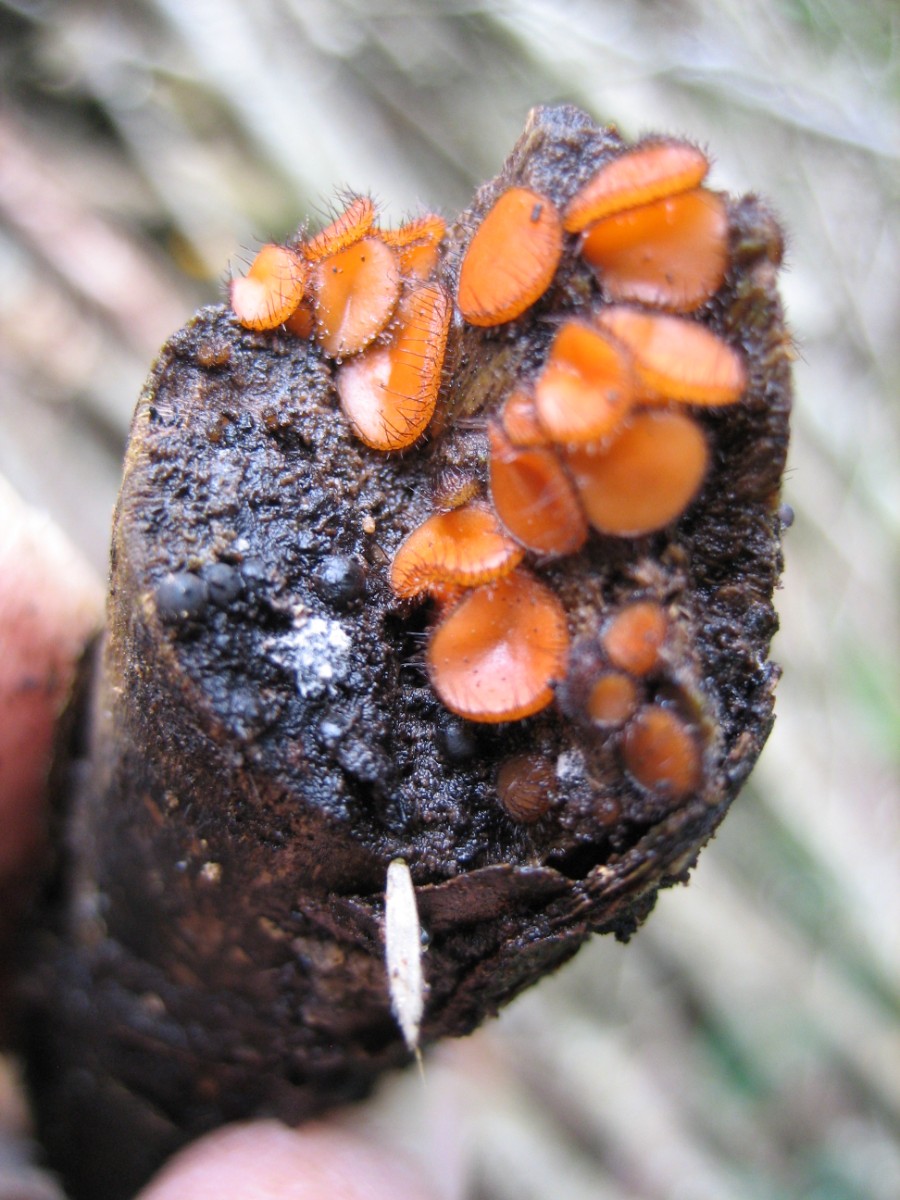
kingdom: Fungi
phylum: Ascomycota
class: Pezizomycetes
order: Pezizales
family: Pyronemataceae
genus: Scutellinia
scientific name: Scutellinia scutellata
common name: frynset skjoldbæger
